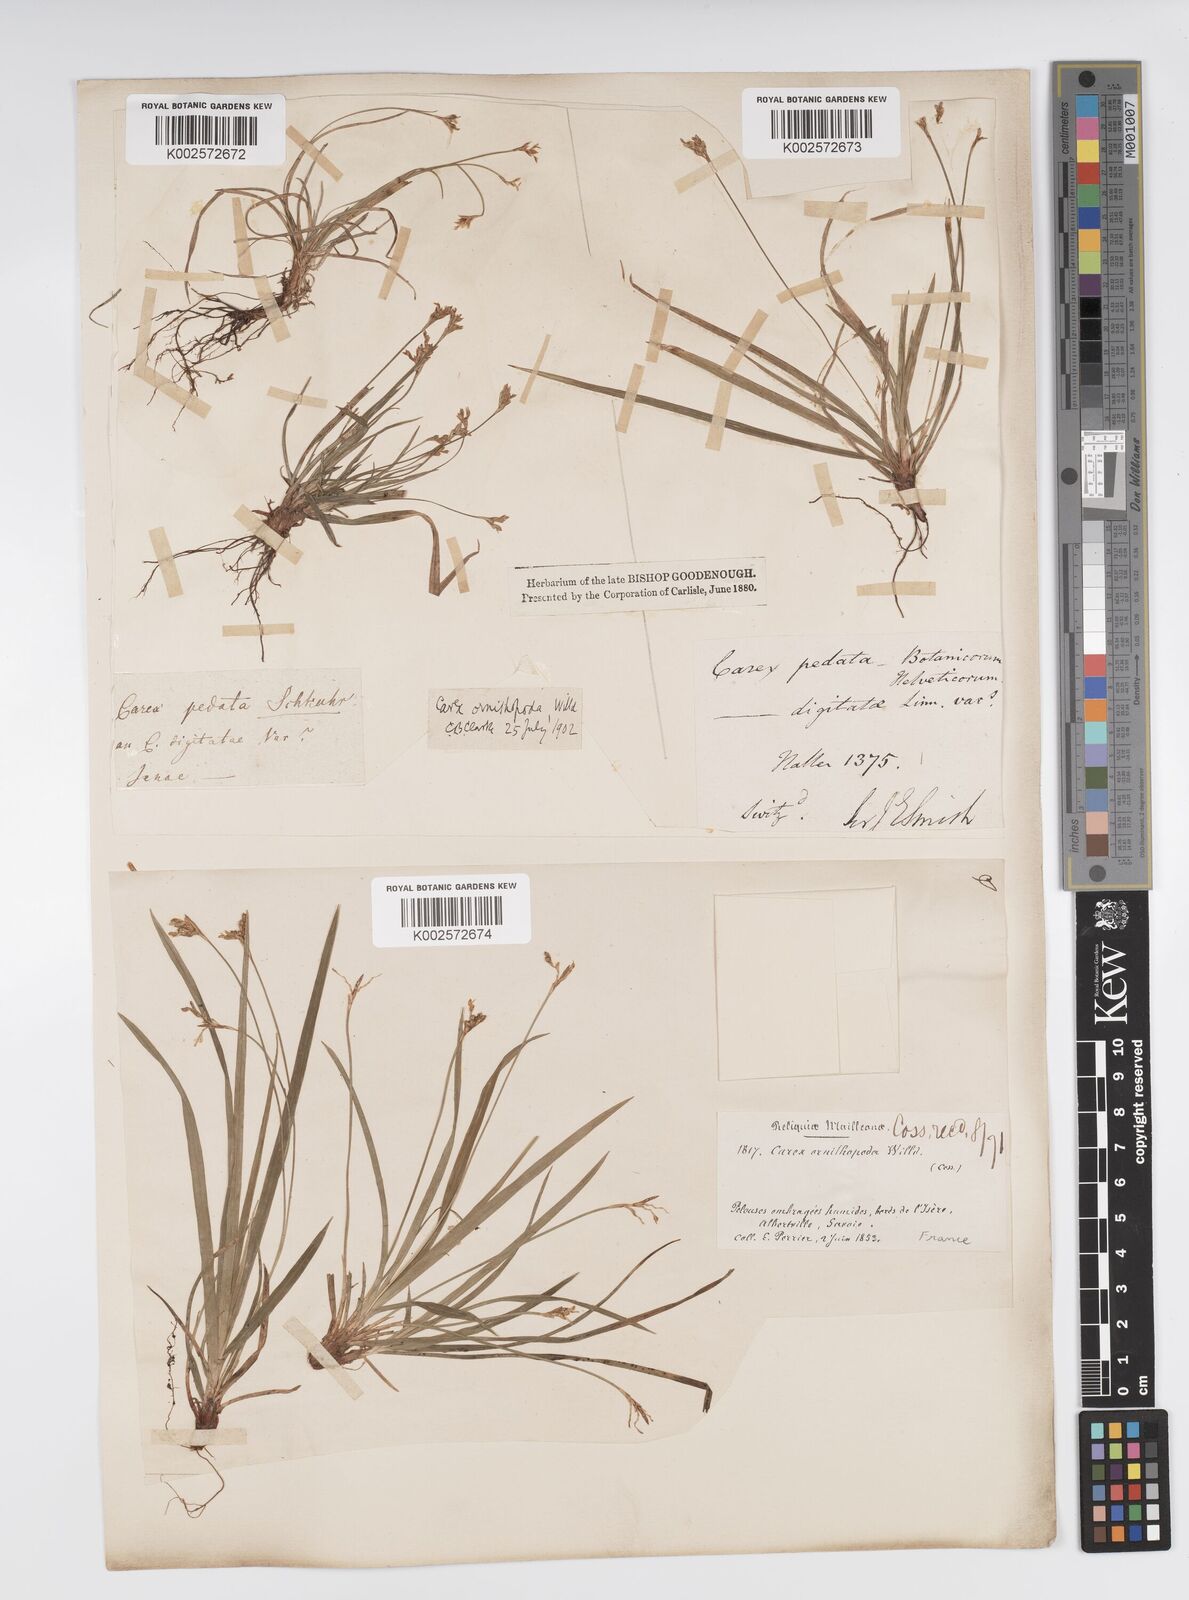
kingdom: Plantae
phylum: Tracheophyta
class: Liliopsida
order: Poales
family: Cyperaceae
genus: Carex
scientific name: Carex ornithopoda
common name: Bird's-foot sedge
